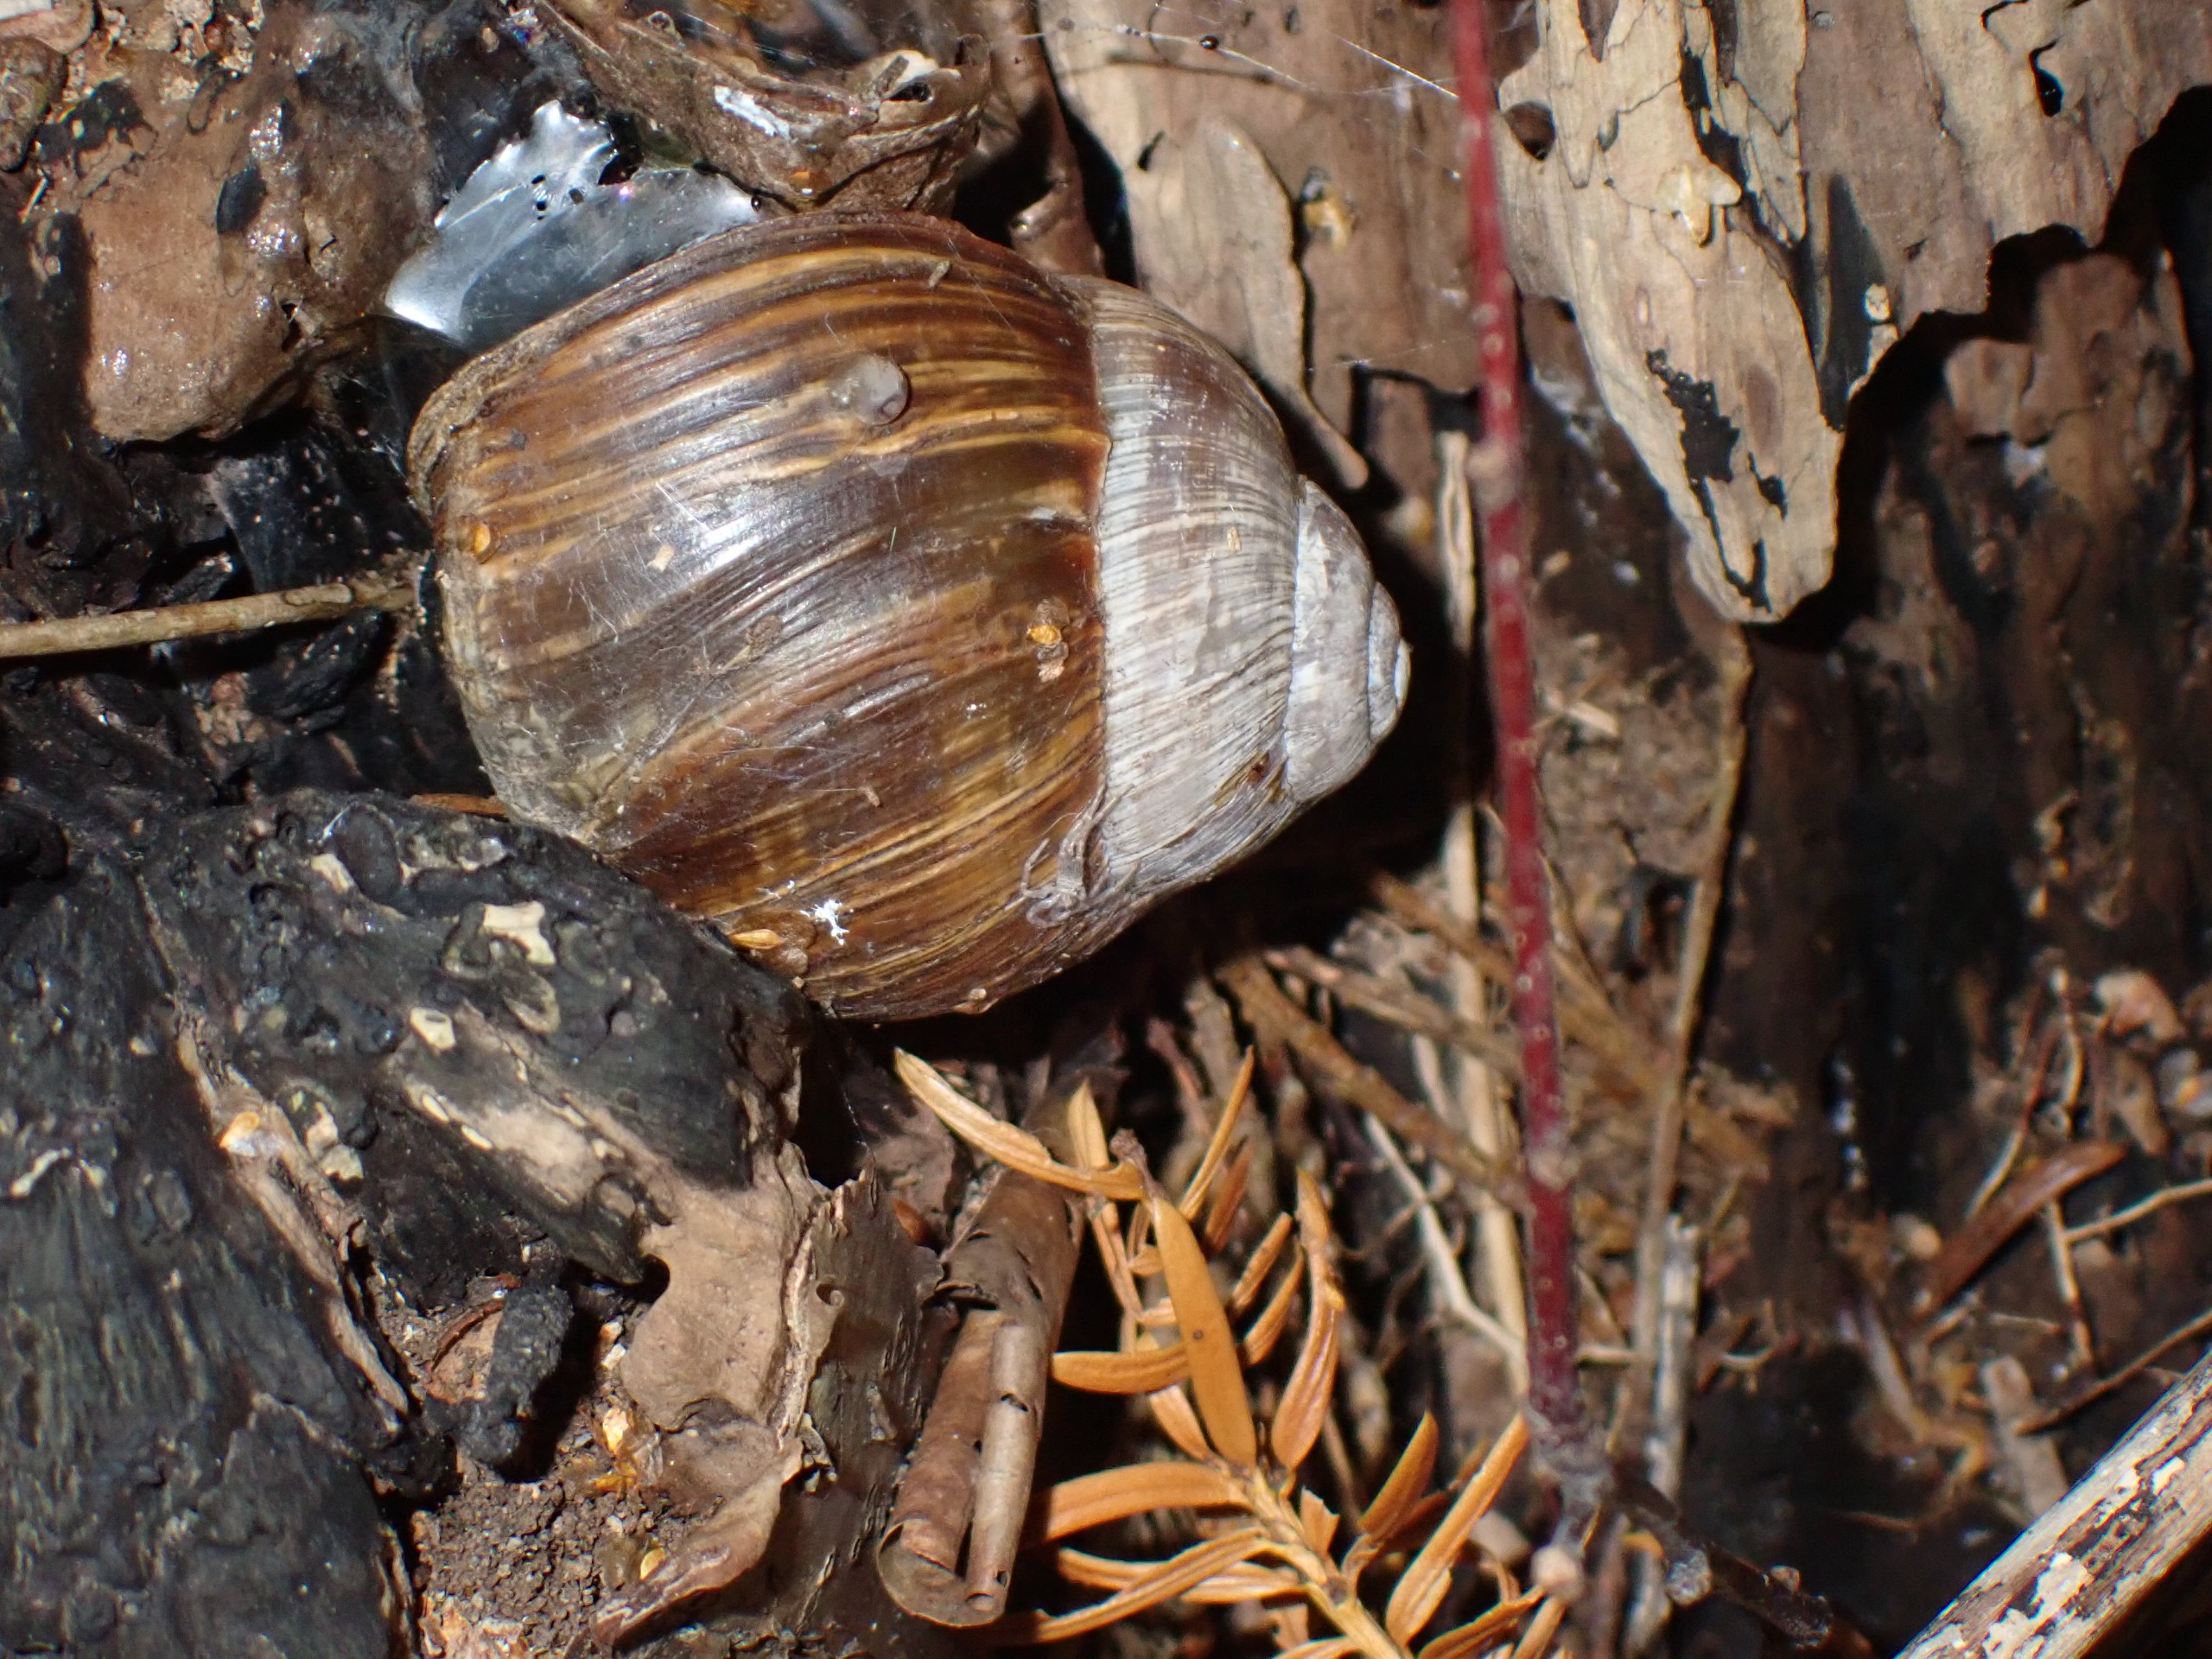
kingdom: Animalia
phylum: Mollusca
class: Gastropoda
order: Stylommatophora
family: Helicidae
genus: Helix
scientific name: Helix pomatia
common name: Vinbjergsnegl
